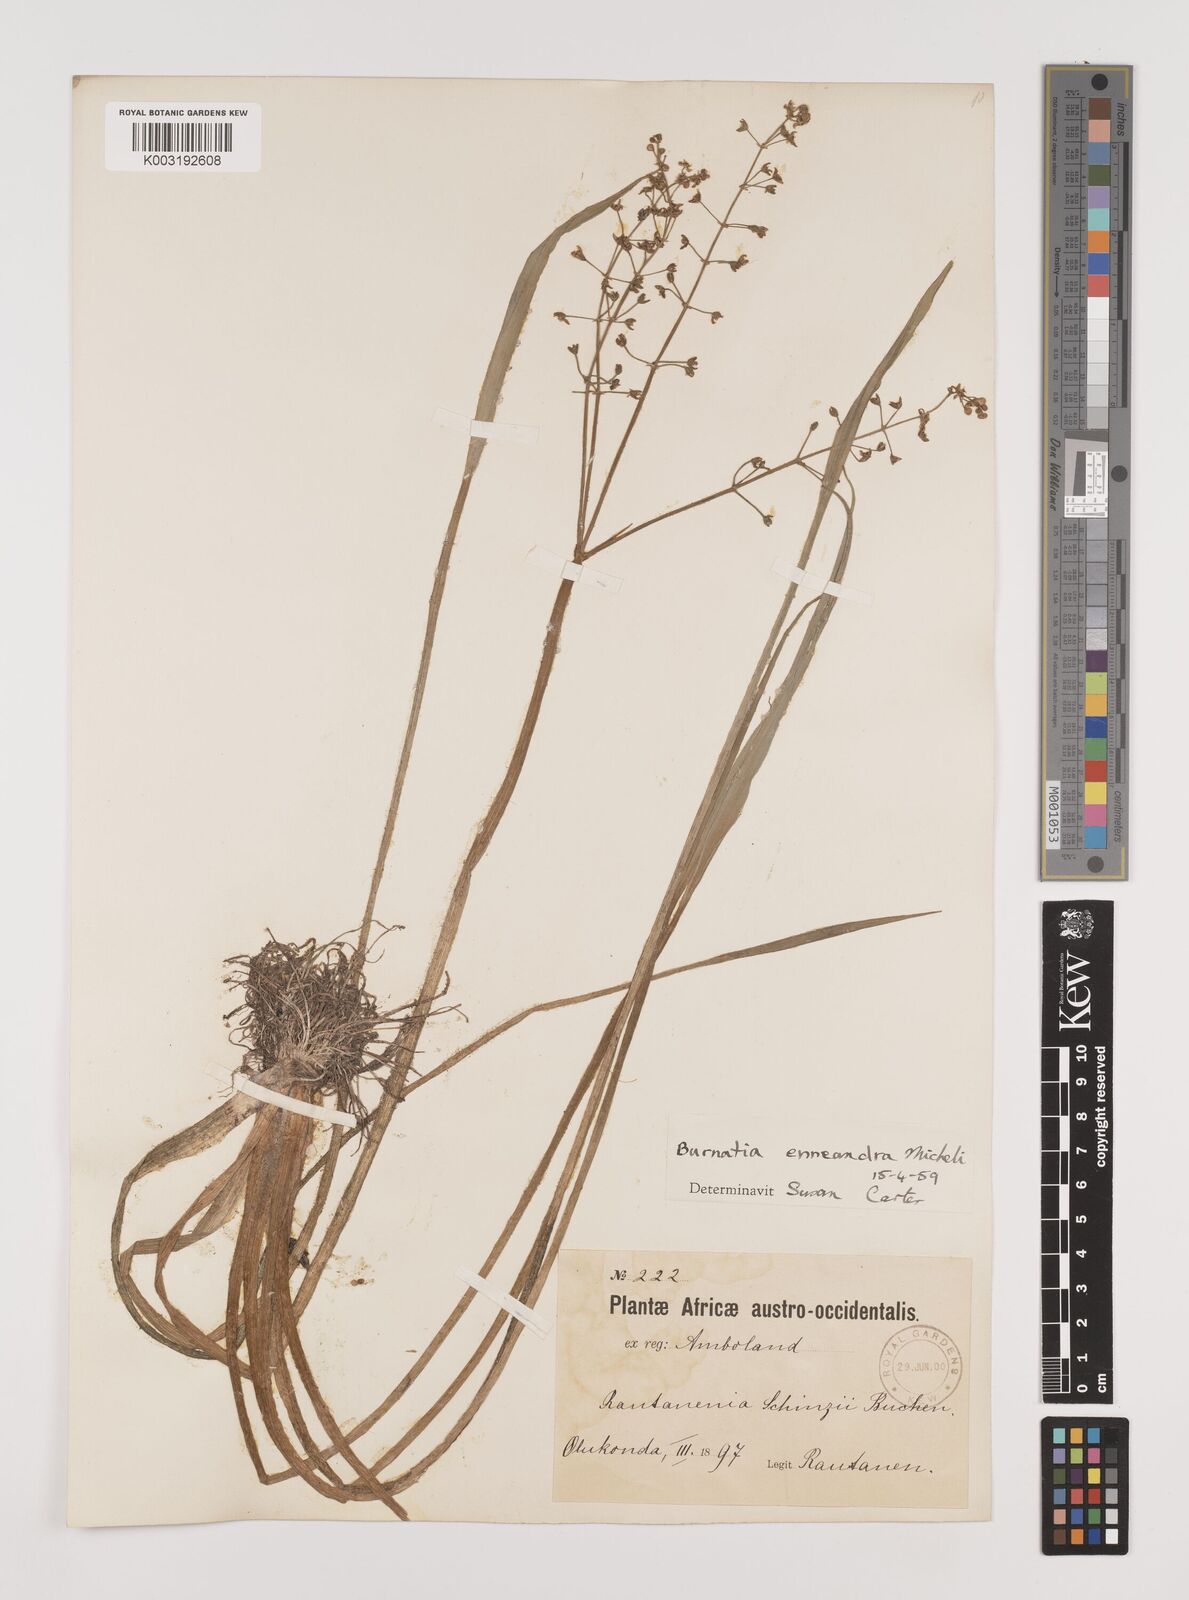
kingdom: Plantae
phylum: Tracheophyta
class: Liliopsida
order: Alismatales
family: Alismataceae
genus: Burnatia
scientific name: Burnatia enneandra
